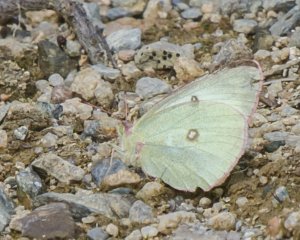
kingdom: Animalia
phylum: Arthropoda
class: Insecta
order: Lepidoptera
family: Pieridae
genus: Colias
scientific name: Colias interior
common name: Pink-edged Sulphur
